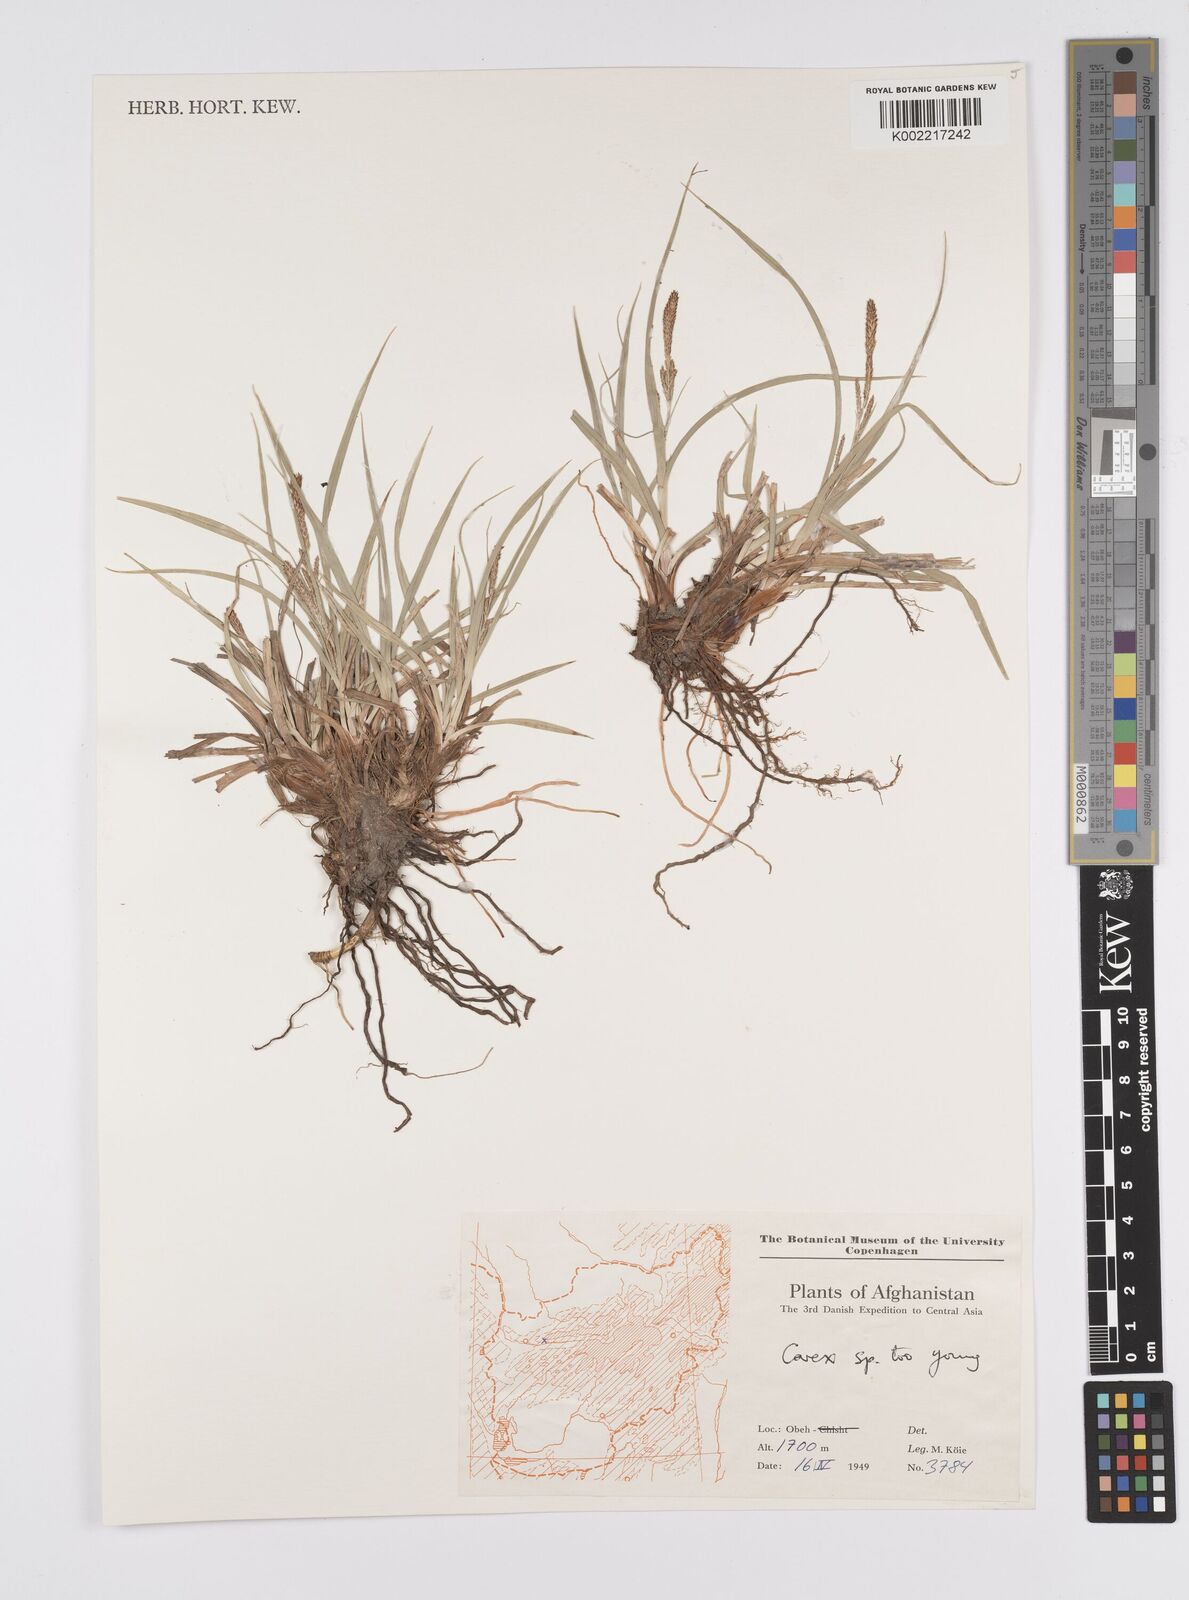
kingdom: Plantae
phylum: Tracheophyta
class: Liliopsida
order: Poales
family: Cyperaceae
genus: Carex
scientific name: Carex
